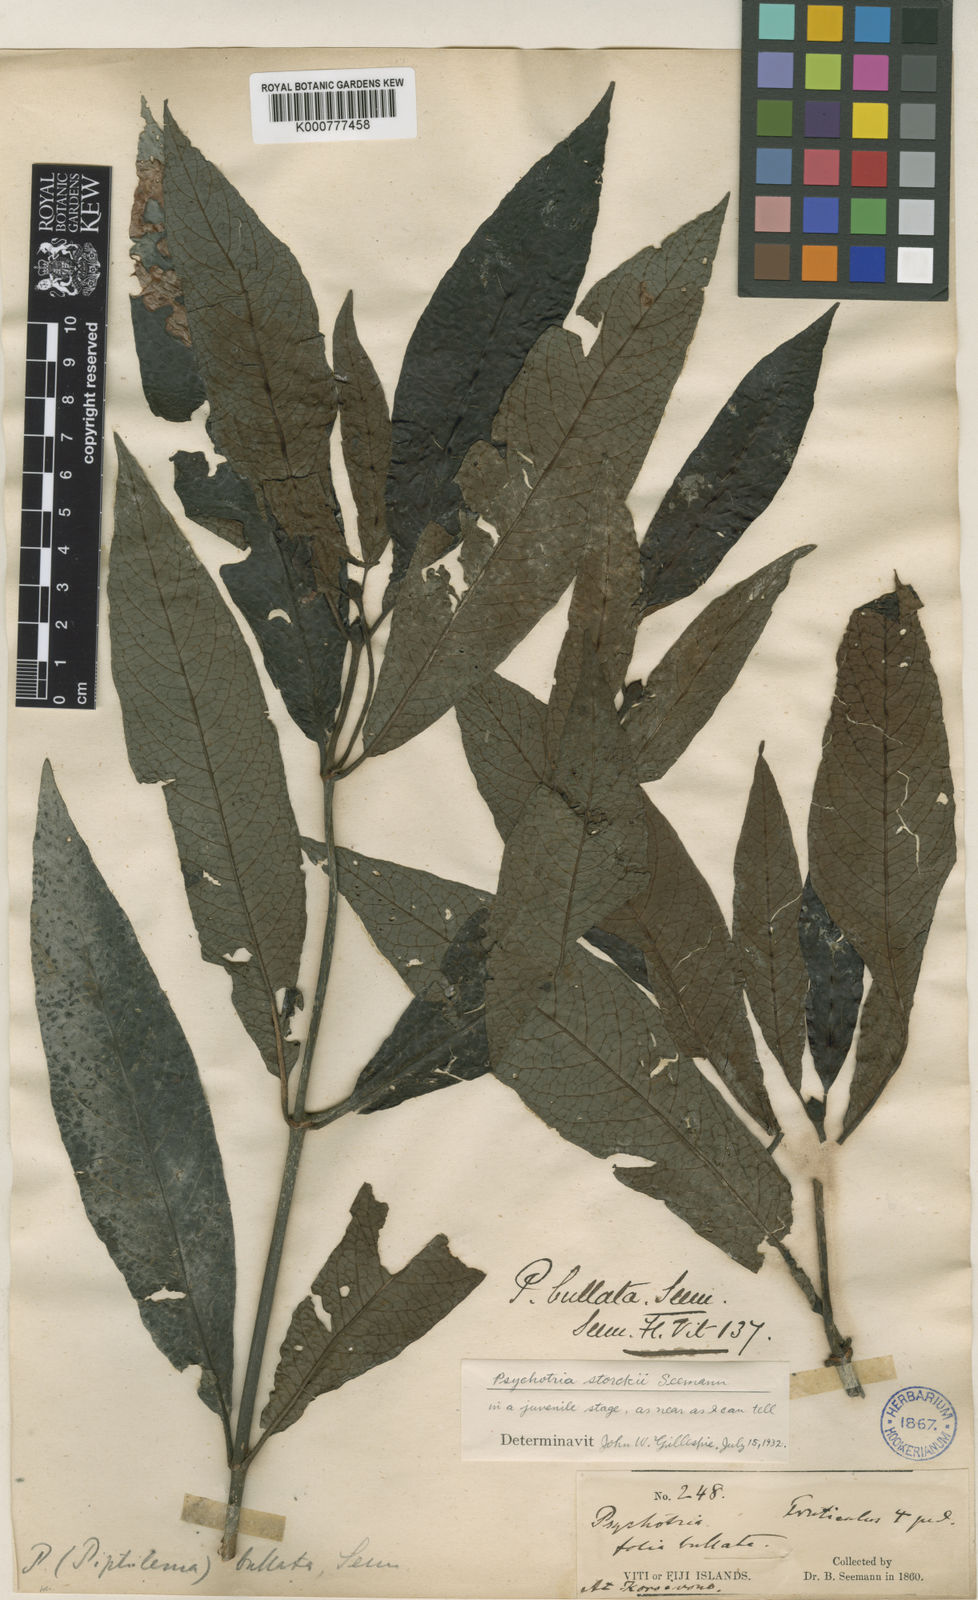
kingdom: Plantae
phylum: Tracheophyta
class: Magnoliopsida
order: Gentianales
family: Rubiaceae
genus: Psychotria
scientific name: Psychotria bullata
